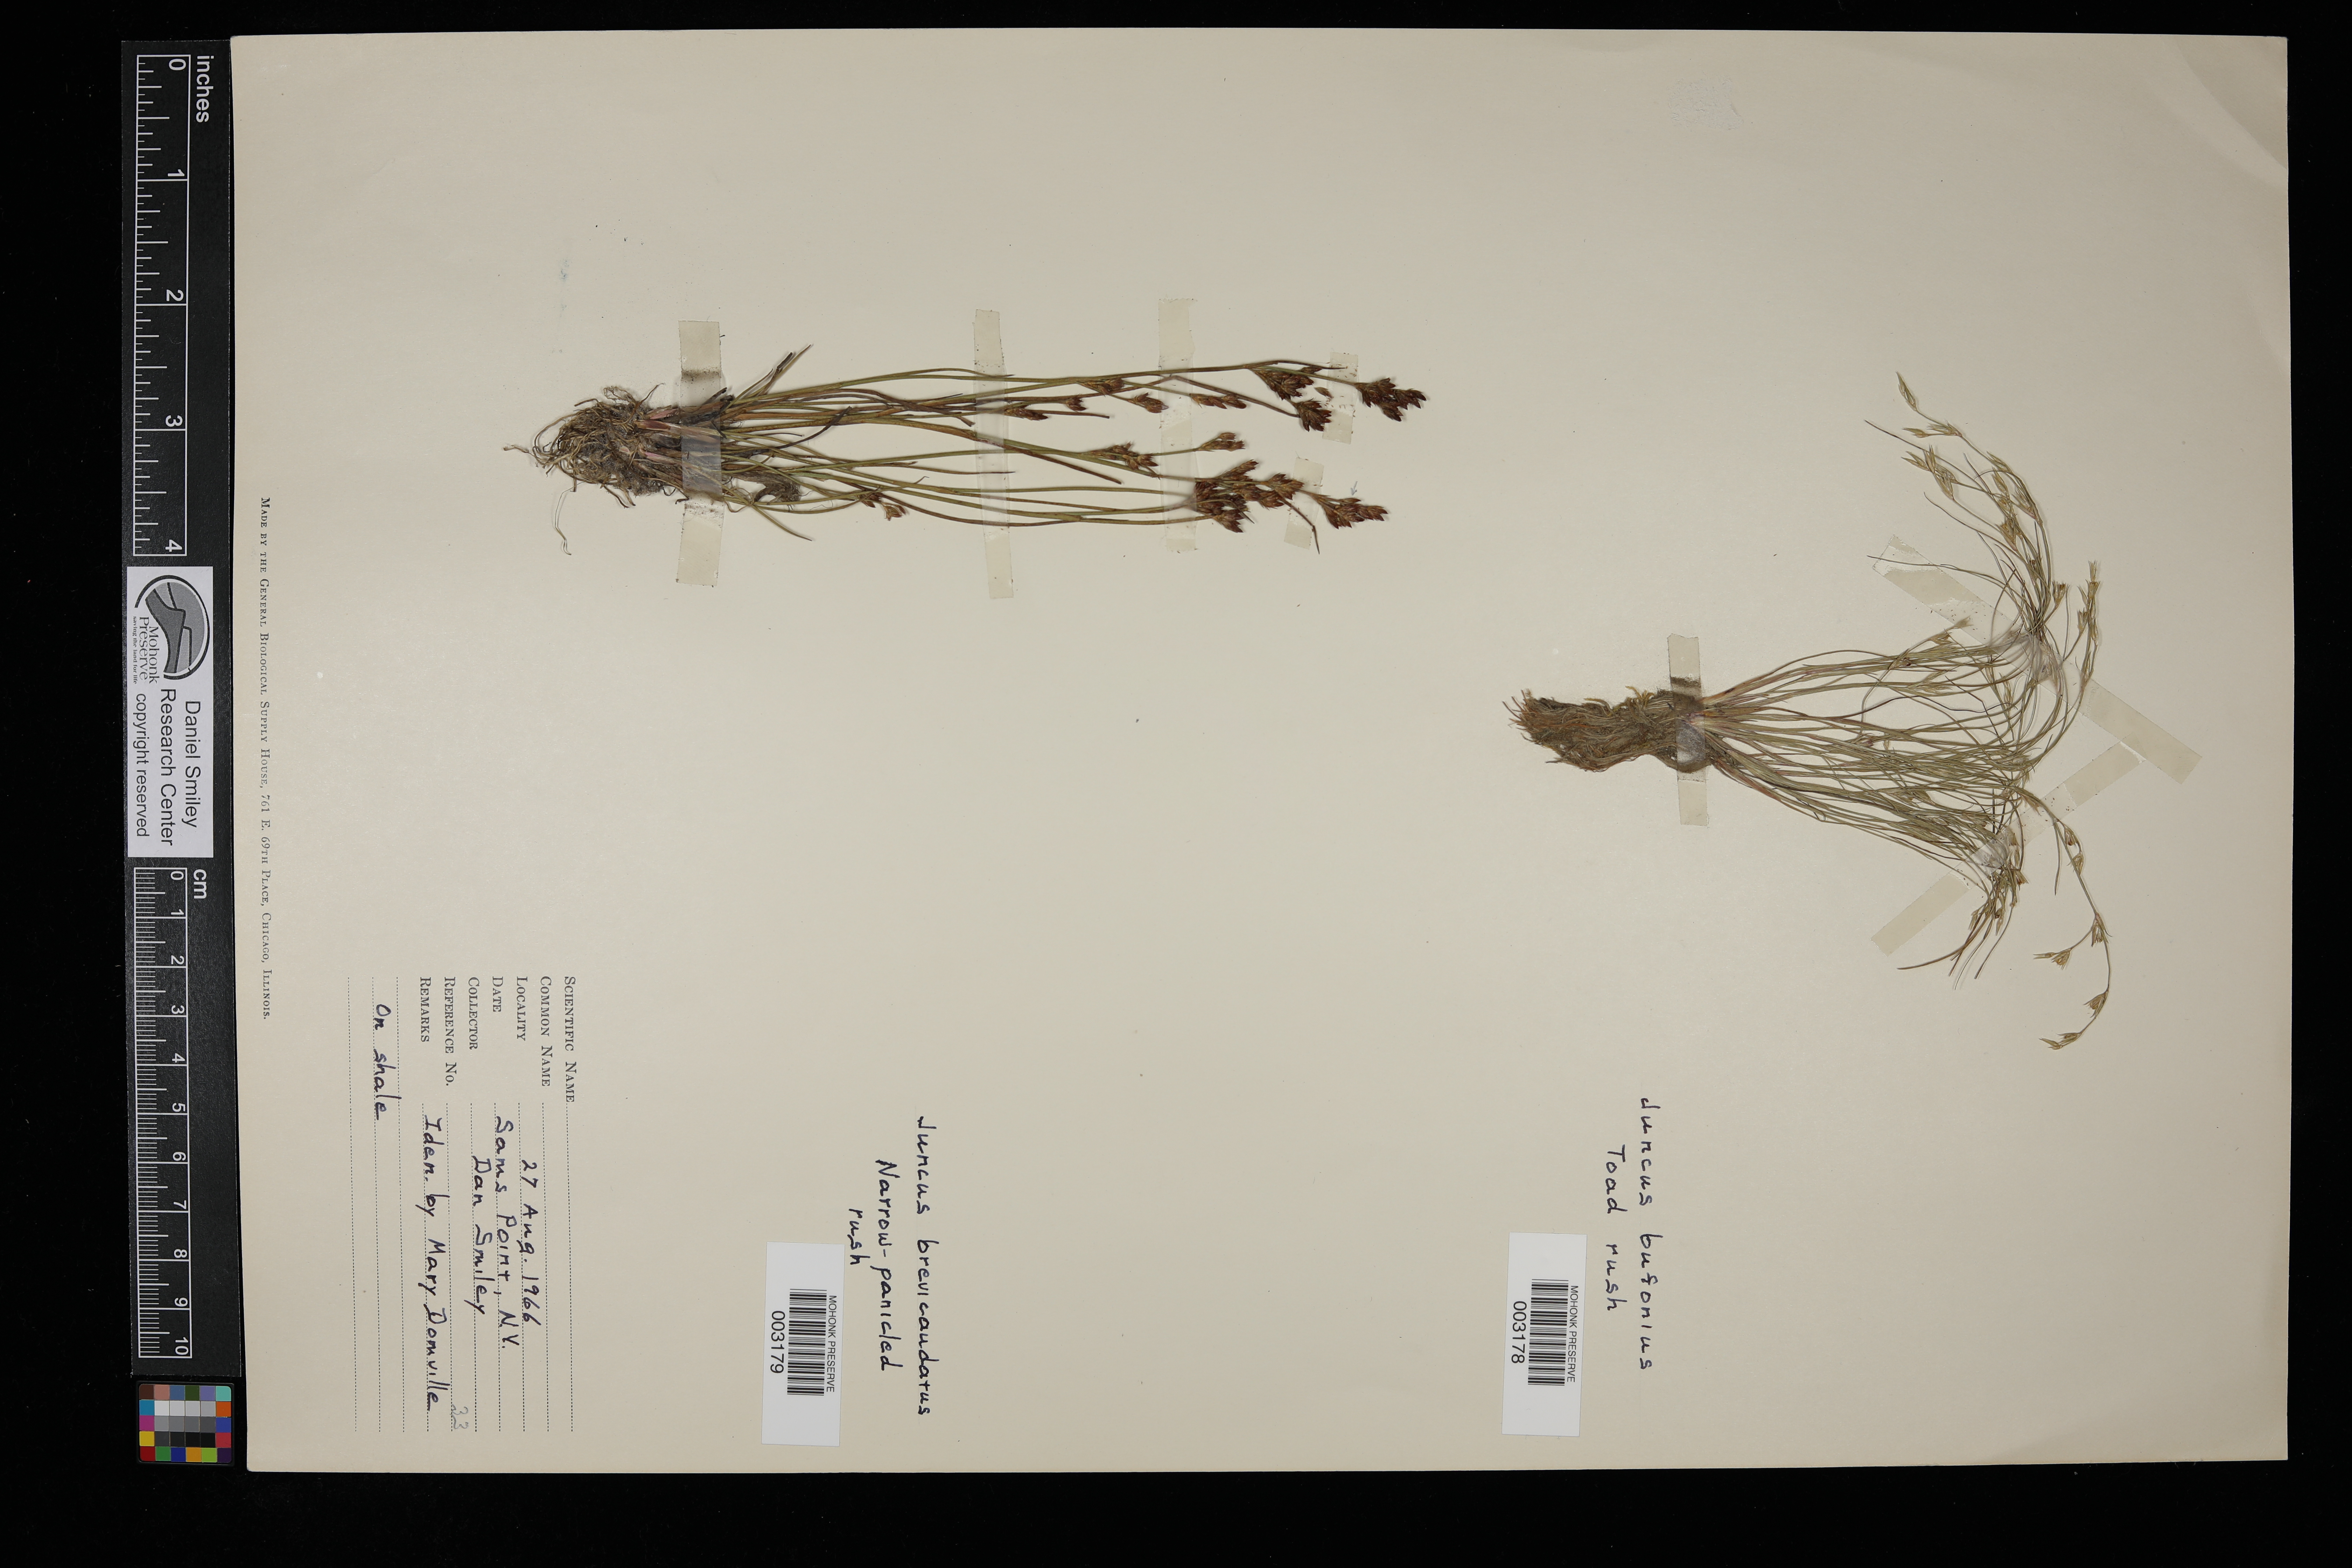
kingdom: Plantae
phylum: Tracheophyta
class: Liliopsida
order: Poales
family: Juncaceae
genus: Juncus
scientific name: Juncus brevicaudatus
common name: Narrow-panicle rush
